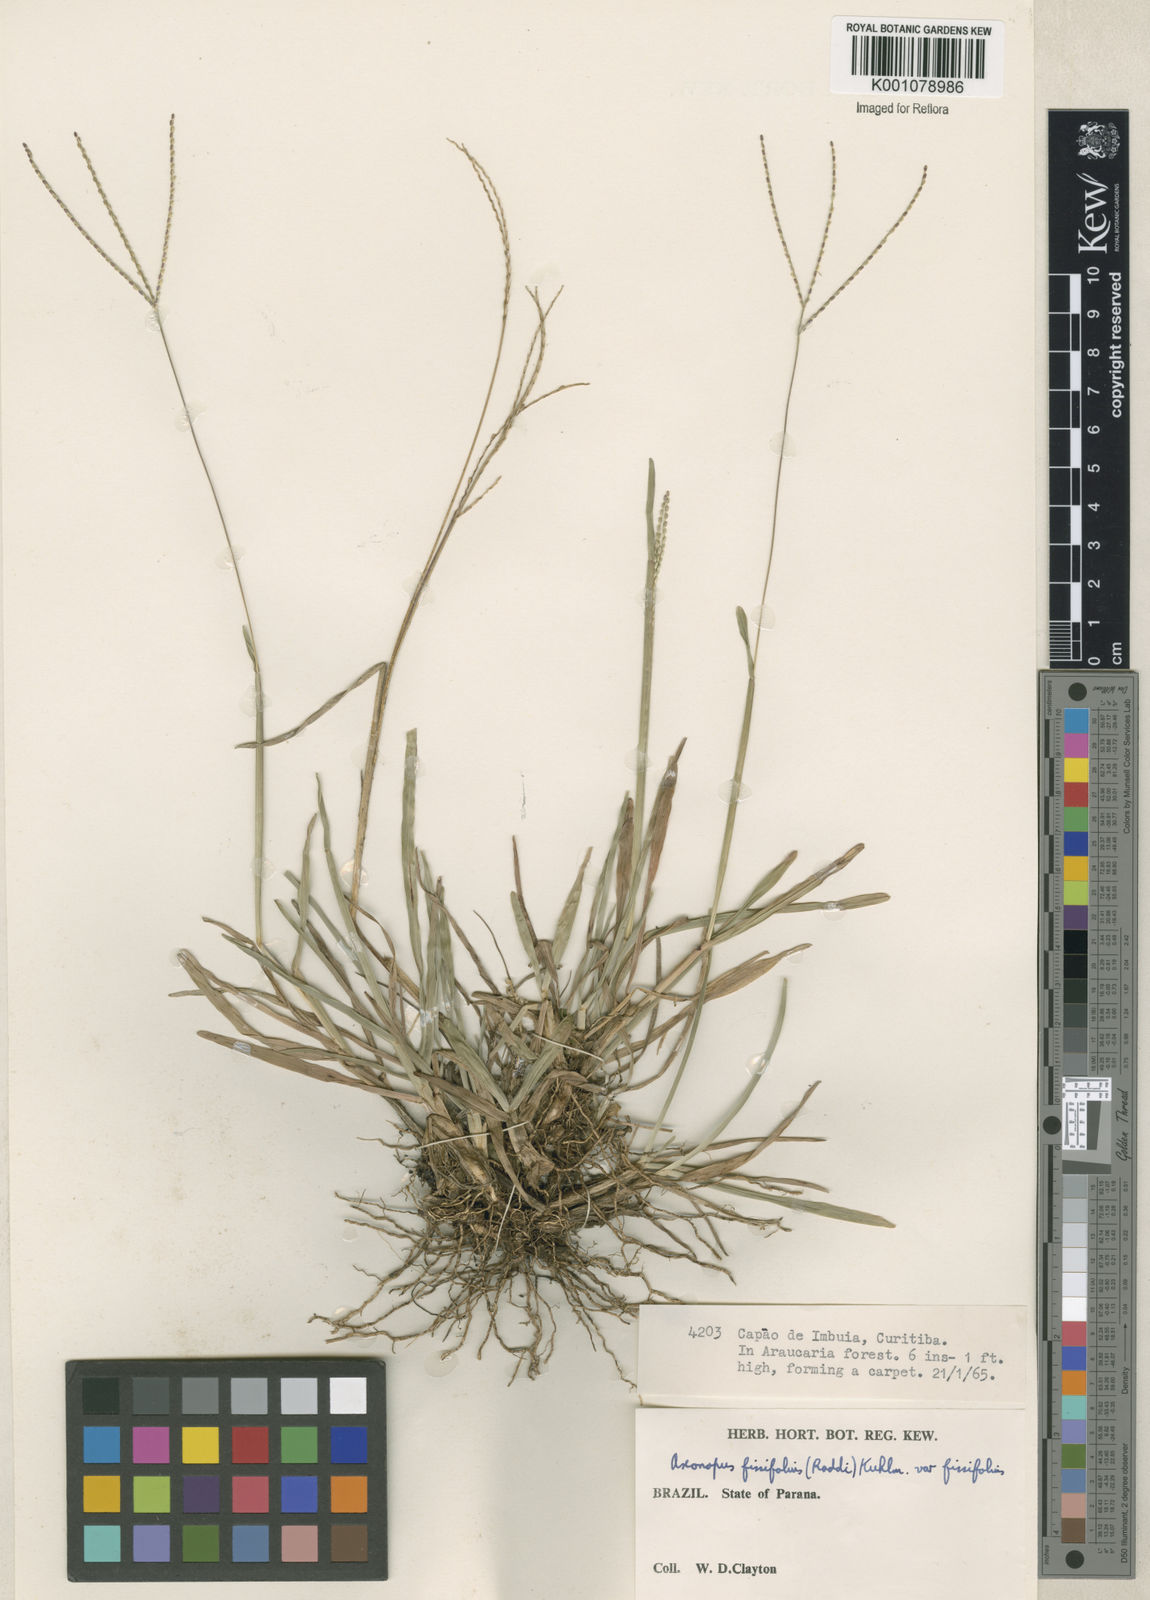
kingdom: Plantae
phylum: Tracheophyta
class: Liliopsida
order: Poales
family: Poaceae
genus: Axonopus
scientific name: Axonopus fissifolius
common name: Common carpetgrass
